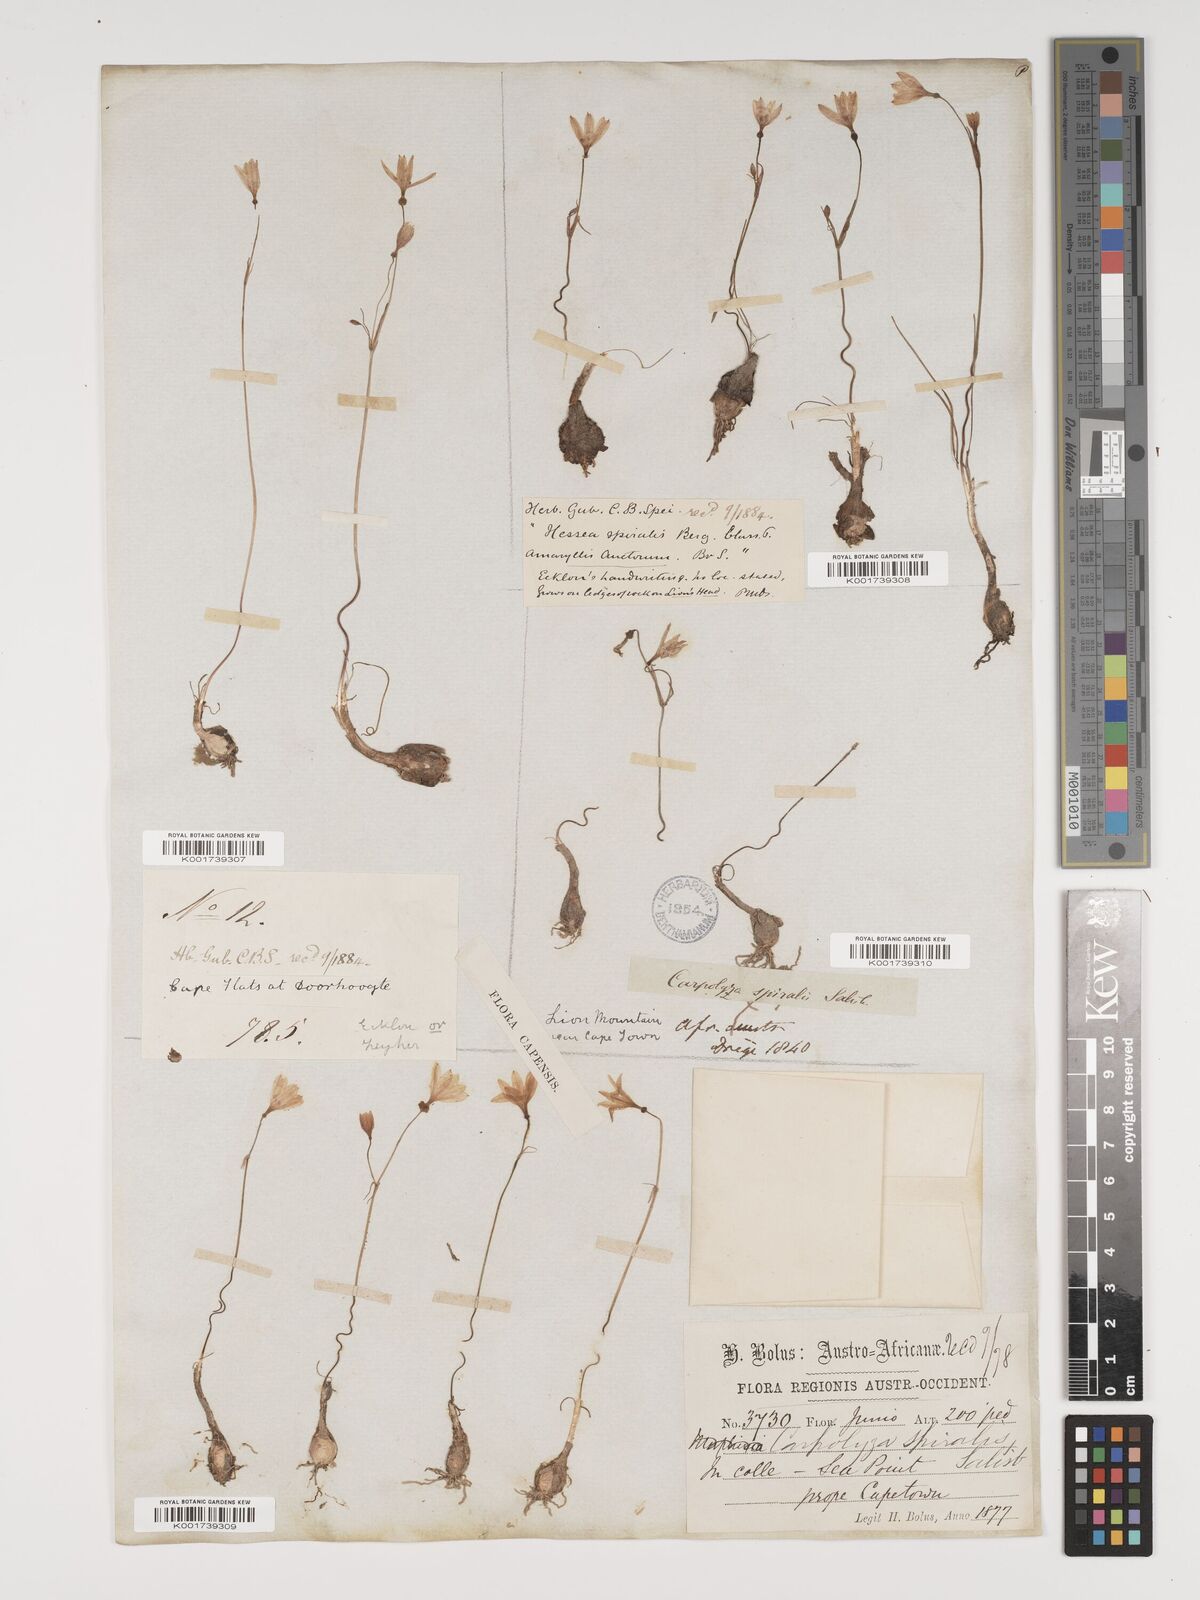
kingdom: Plantae
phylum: Tracheophyta
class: Liliopsida
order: Asparagales
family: Amaryllidaceae
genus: Strumaria
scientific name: Strumaria spiralis
